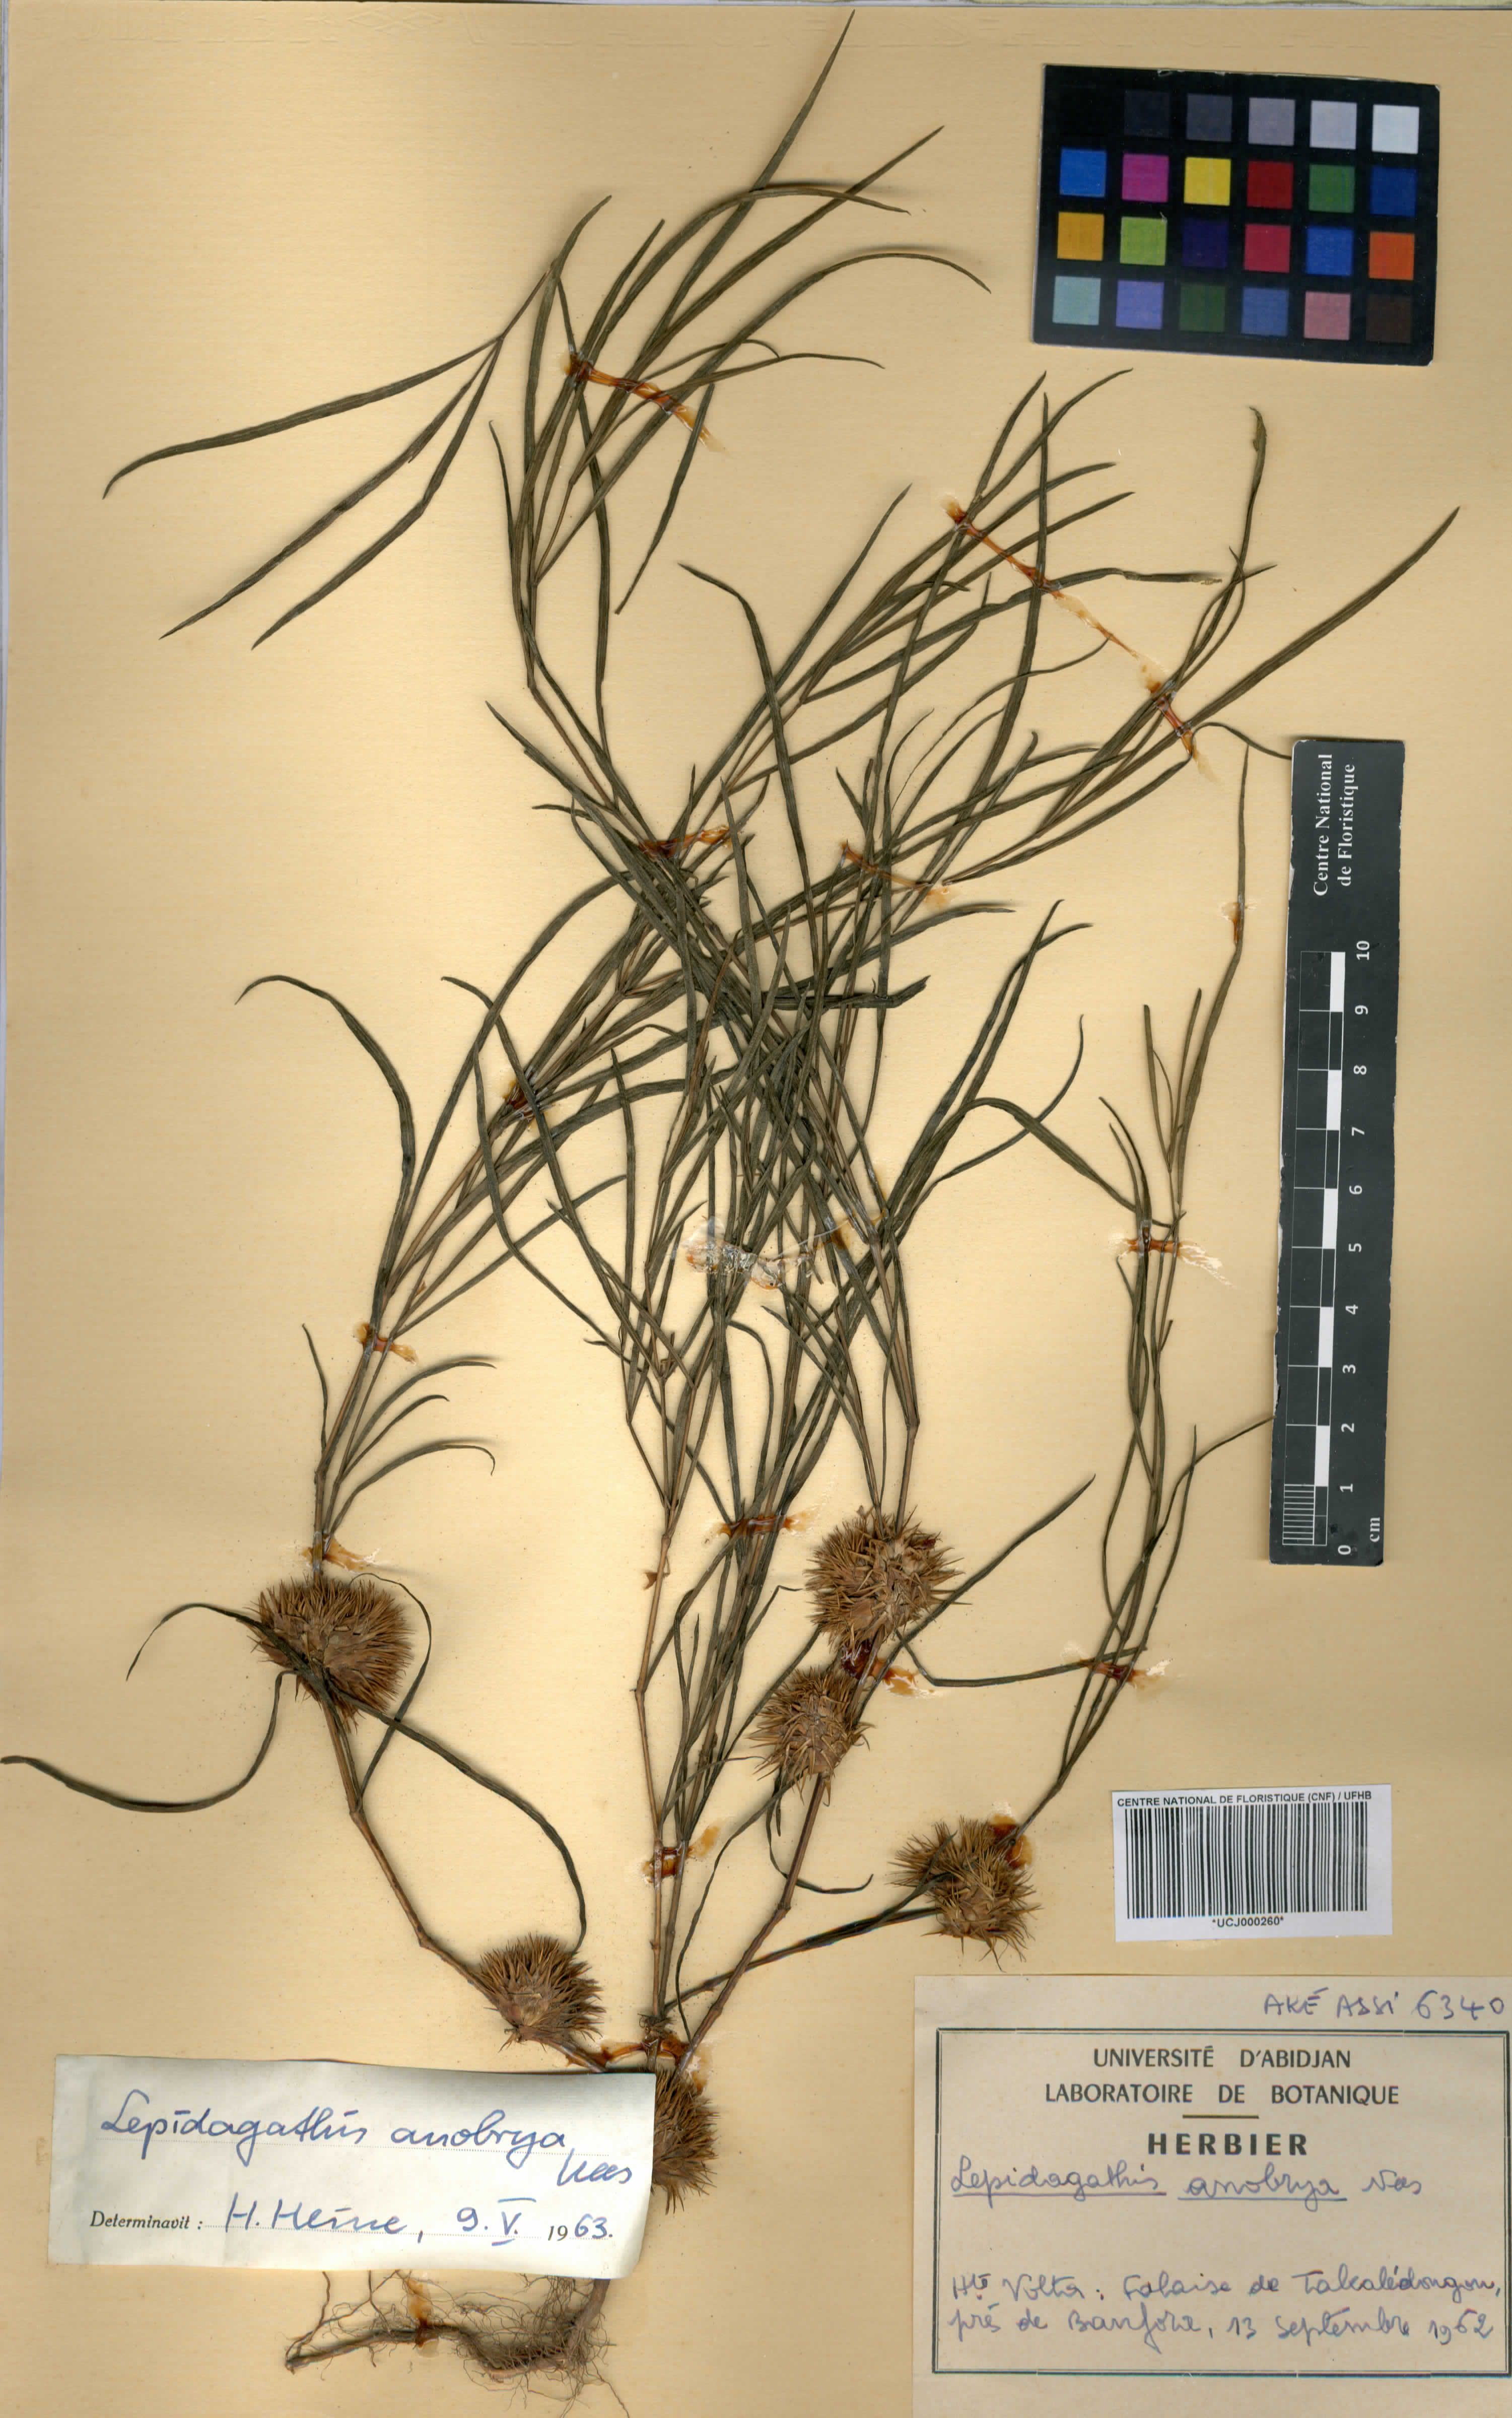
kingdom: Plantae
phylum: Tracheophyta
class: Magnoliopsida
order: Lamiales
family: Acanthaceae
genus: Lepidagathis
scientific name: Lepidagathis anobrya
